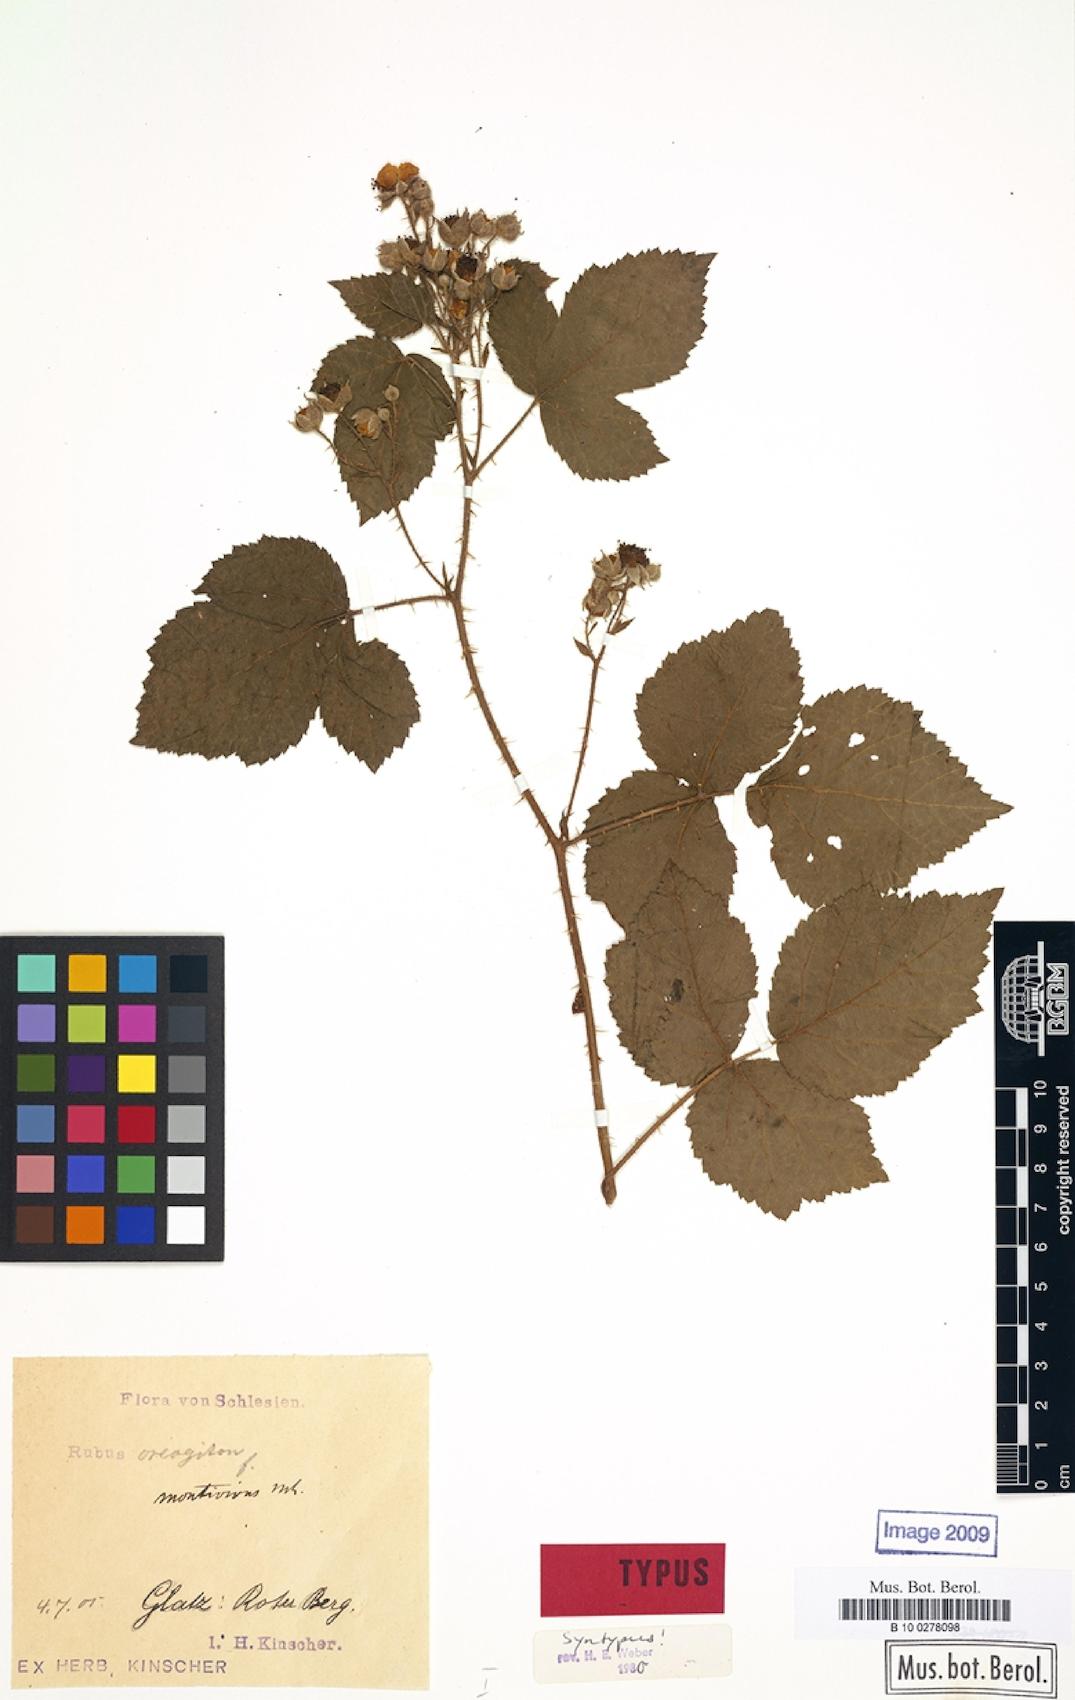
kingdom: Plantae
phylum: Tracheophyta
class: Magnoliopsida
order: Rosales
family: Rosaceae
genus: Rubus
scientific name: Rubus dollnensis
